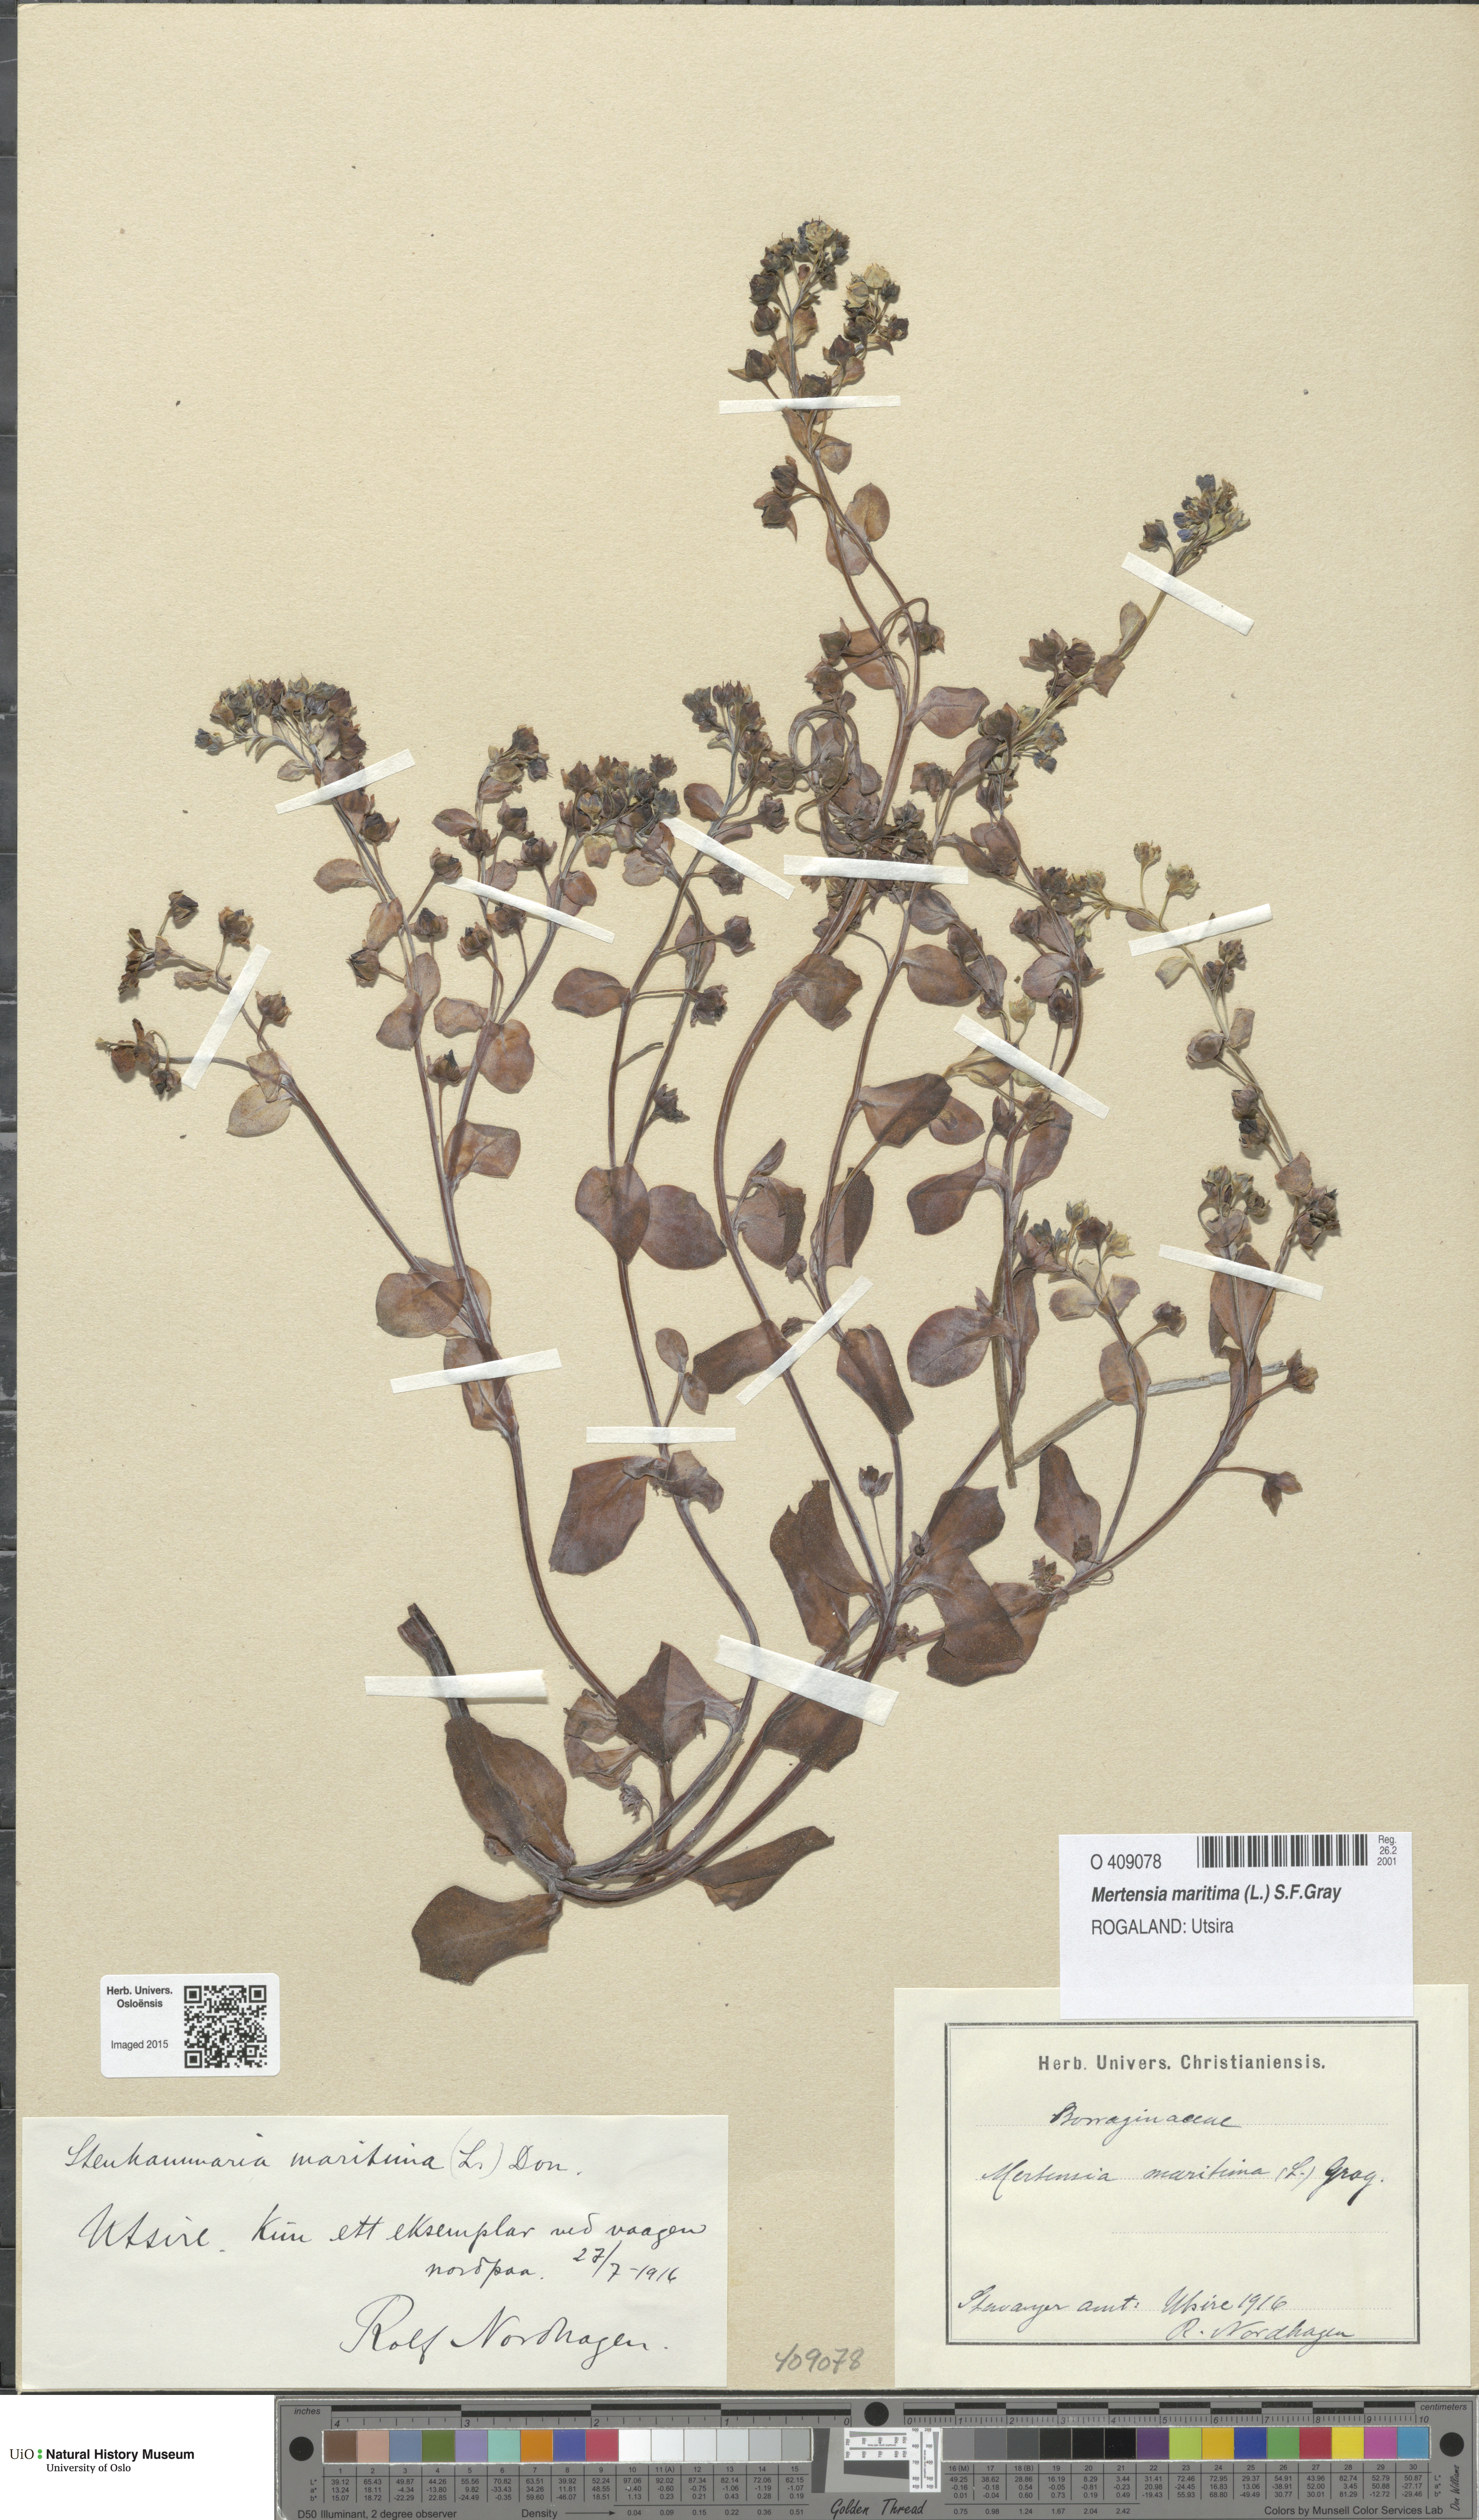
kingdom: Plantae
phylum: Tracheophyta
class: Magnoliopsida
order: Boraginales
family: Boraginaceae
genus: Mertensia
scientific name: Mertensia maritima
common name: Oysterplant
